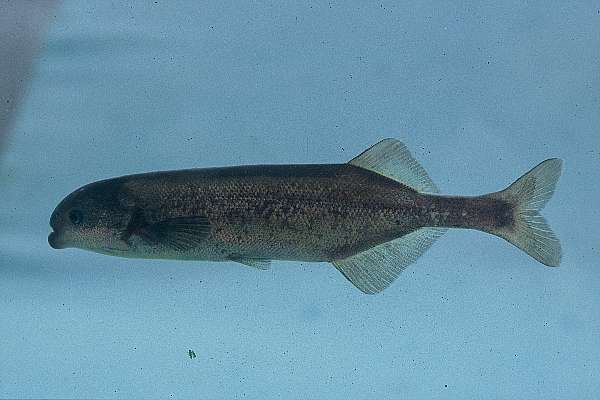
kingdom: Animalia
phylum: Chordata
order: Osteoglossiformes
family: Mormyridae
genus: Marcusenius
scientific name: Marcusenius pongolensis
